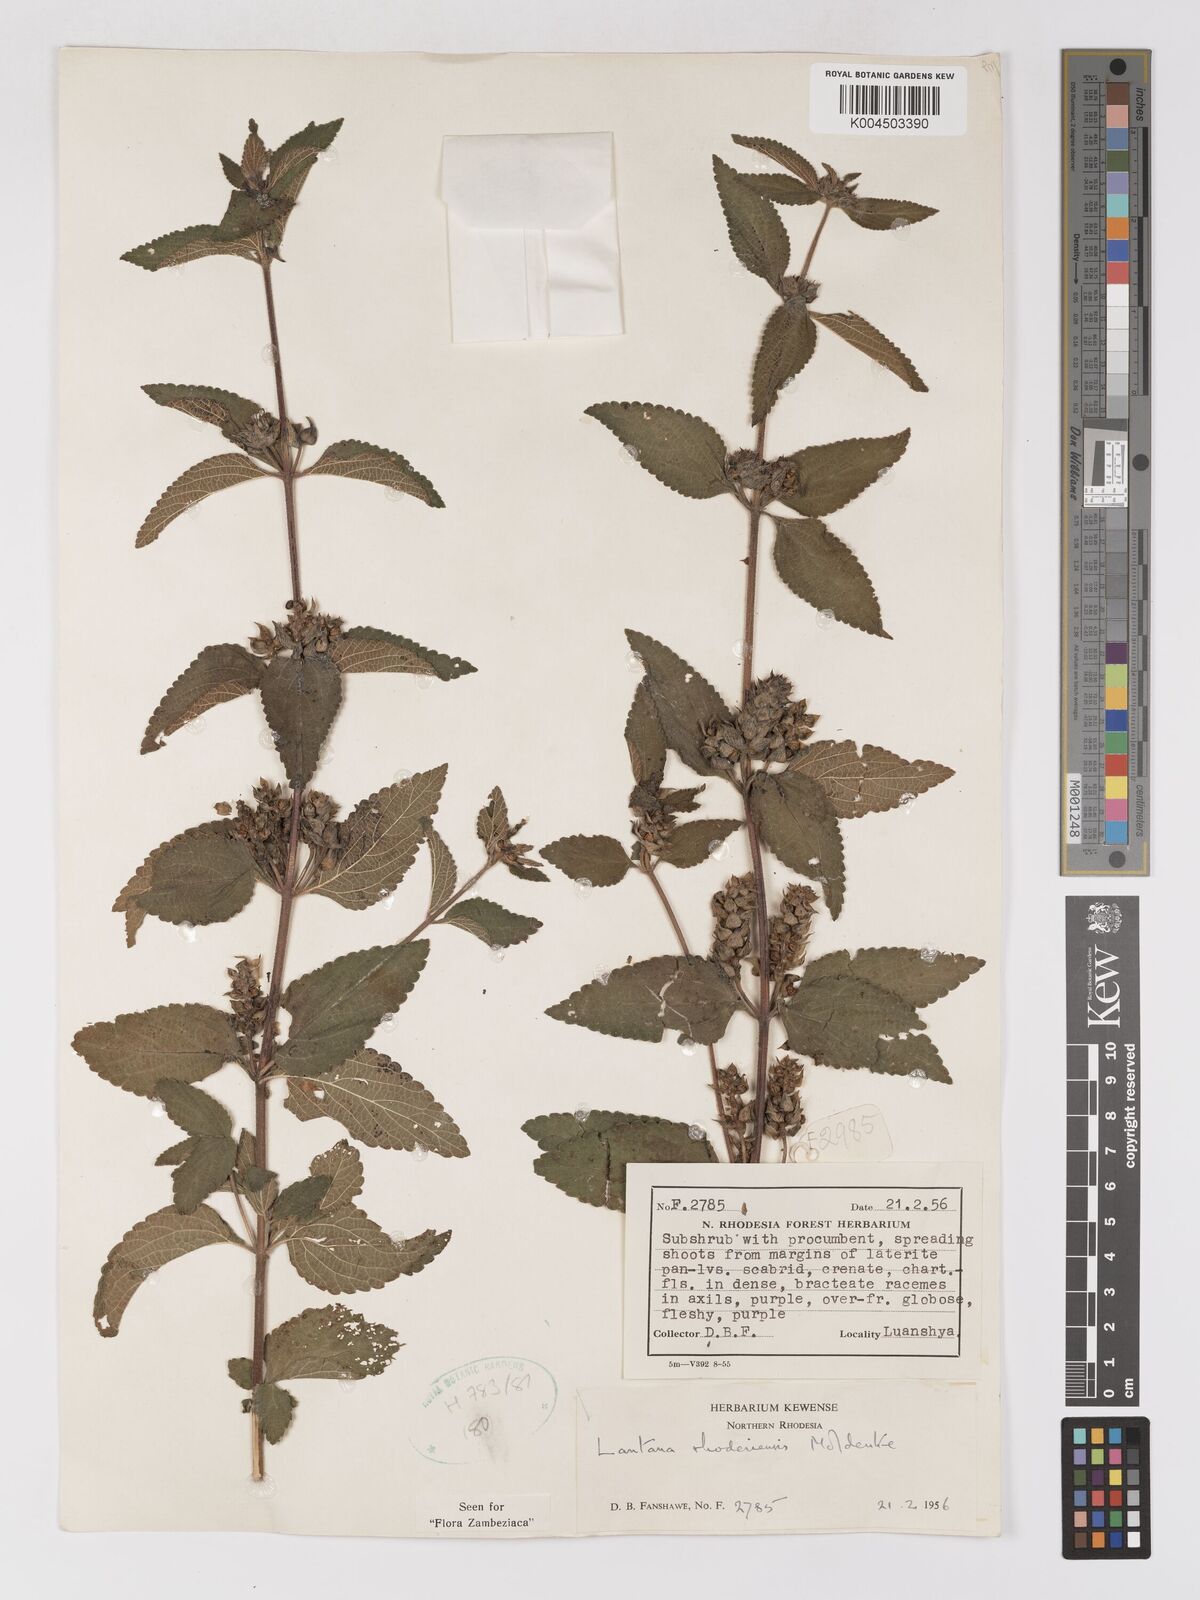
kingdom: Plantae
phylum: Tracheophyta
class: Magnoliopsida
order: Lamiales
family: Verbenaceae
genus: Lantana
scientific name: Lantana ukambensis
